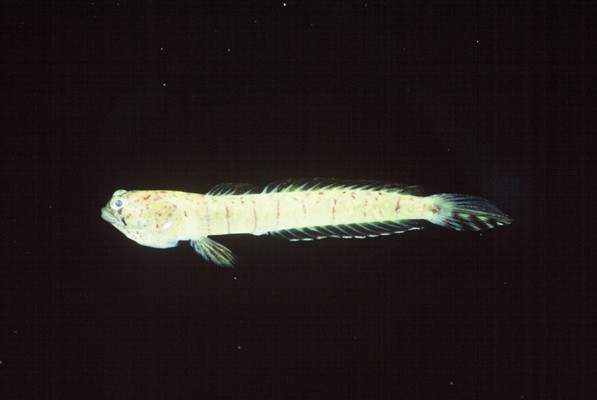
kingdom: Animalia
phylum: Chordata
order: Perciformes
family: Gobiidae
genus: Croilia
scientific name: Croilia mossambica
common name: Burrowing goby
